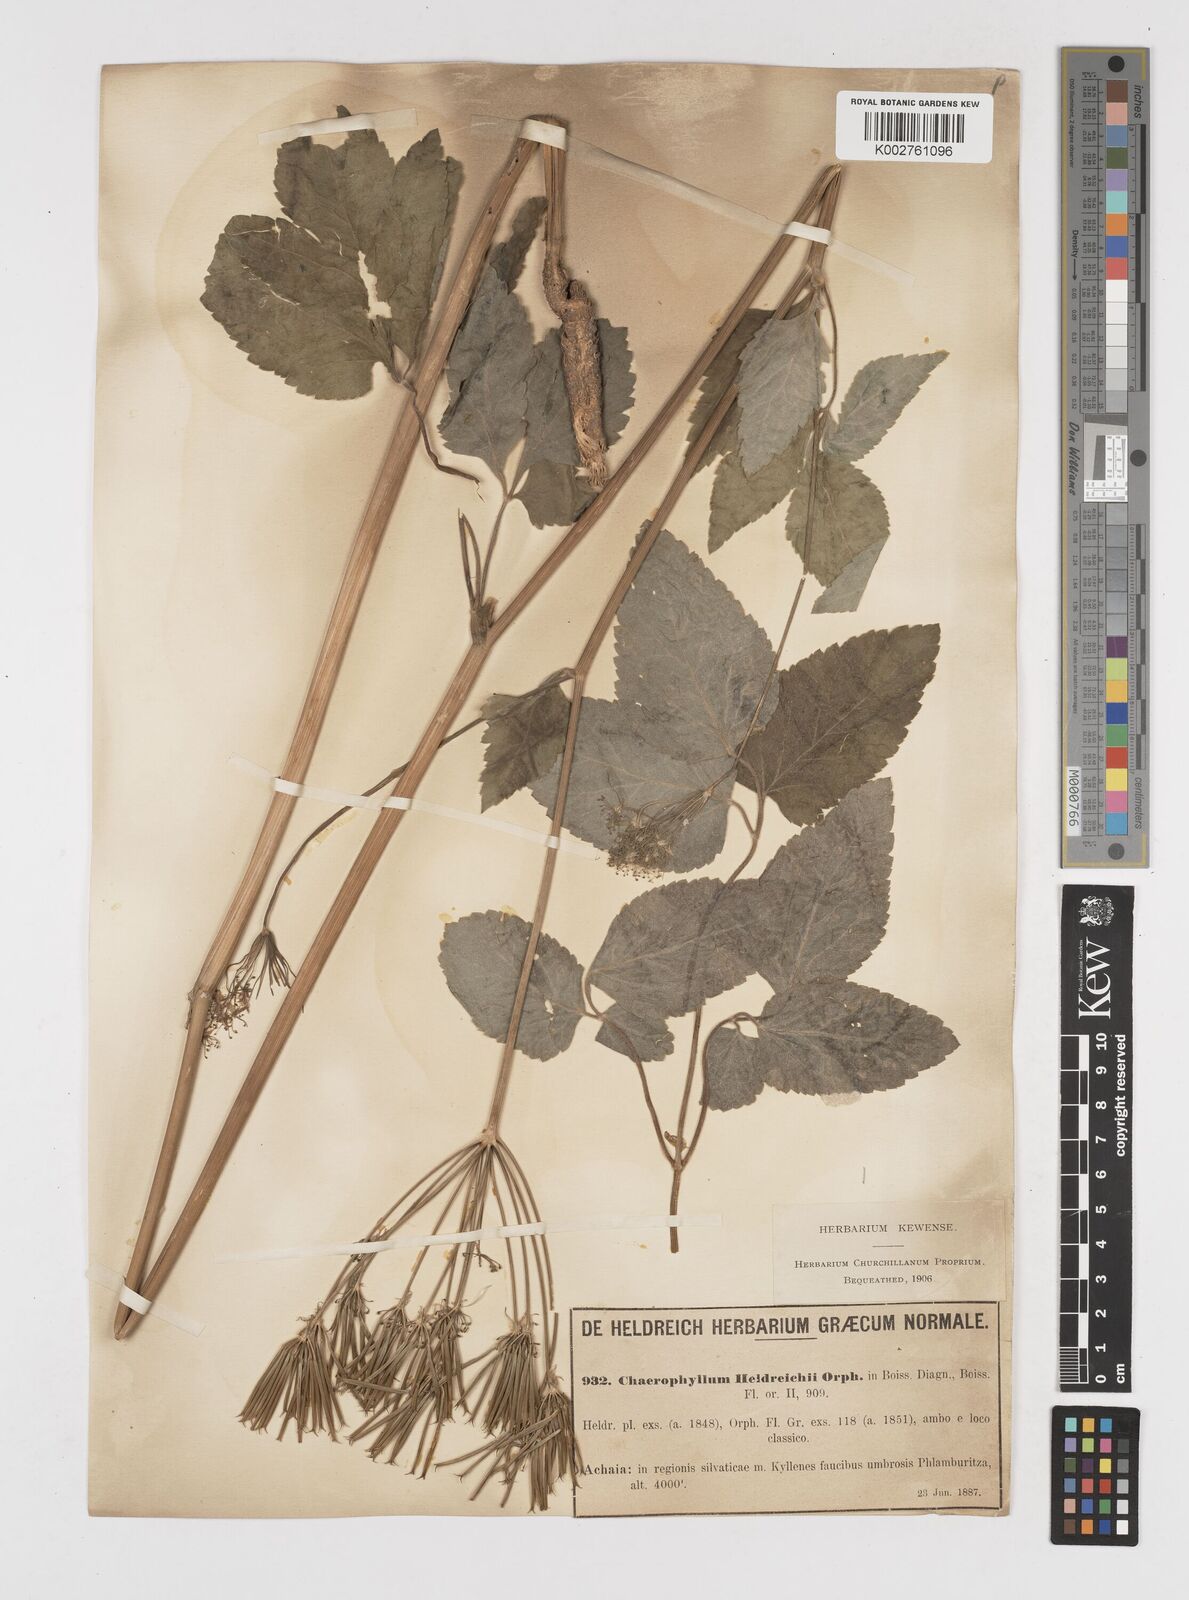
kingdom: Plantae
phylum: Tracheophyta
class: Magnoliopsida
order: Apiales
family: Apiaceae
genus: Chaerophyllum
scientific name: Chaerophyllum heldreichii
